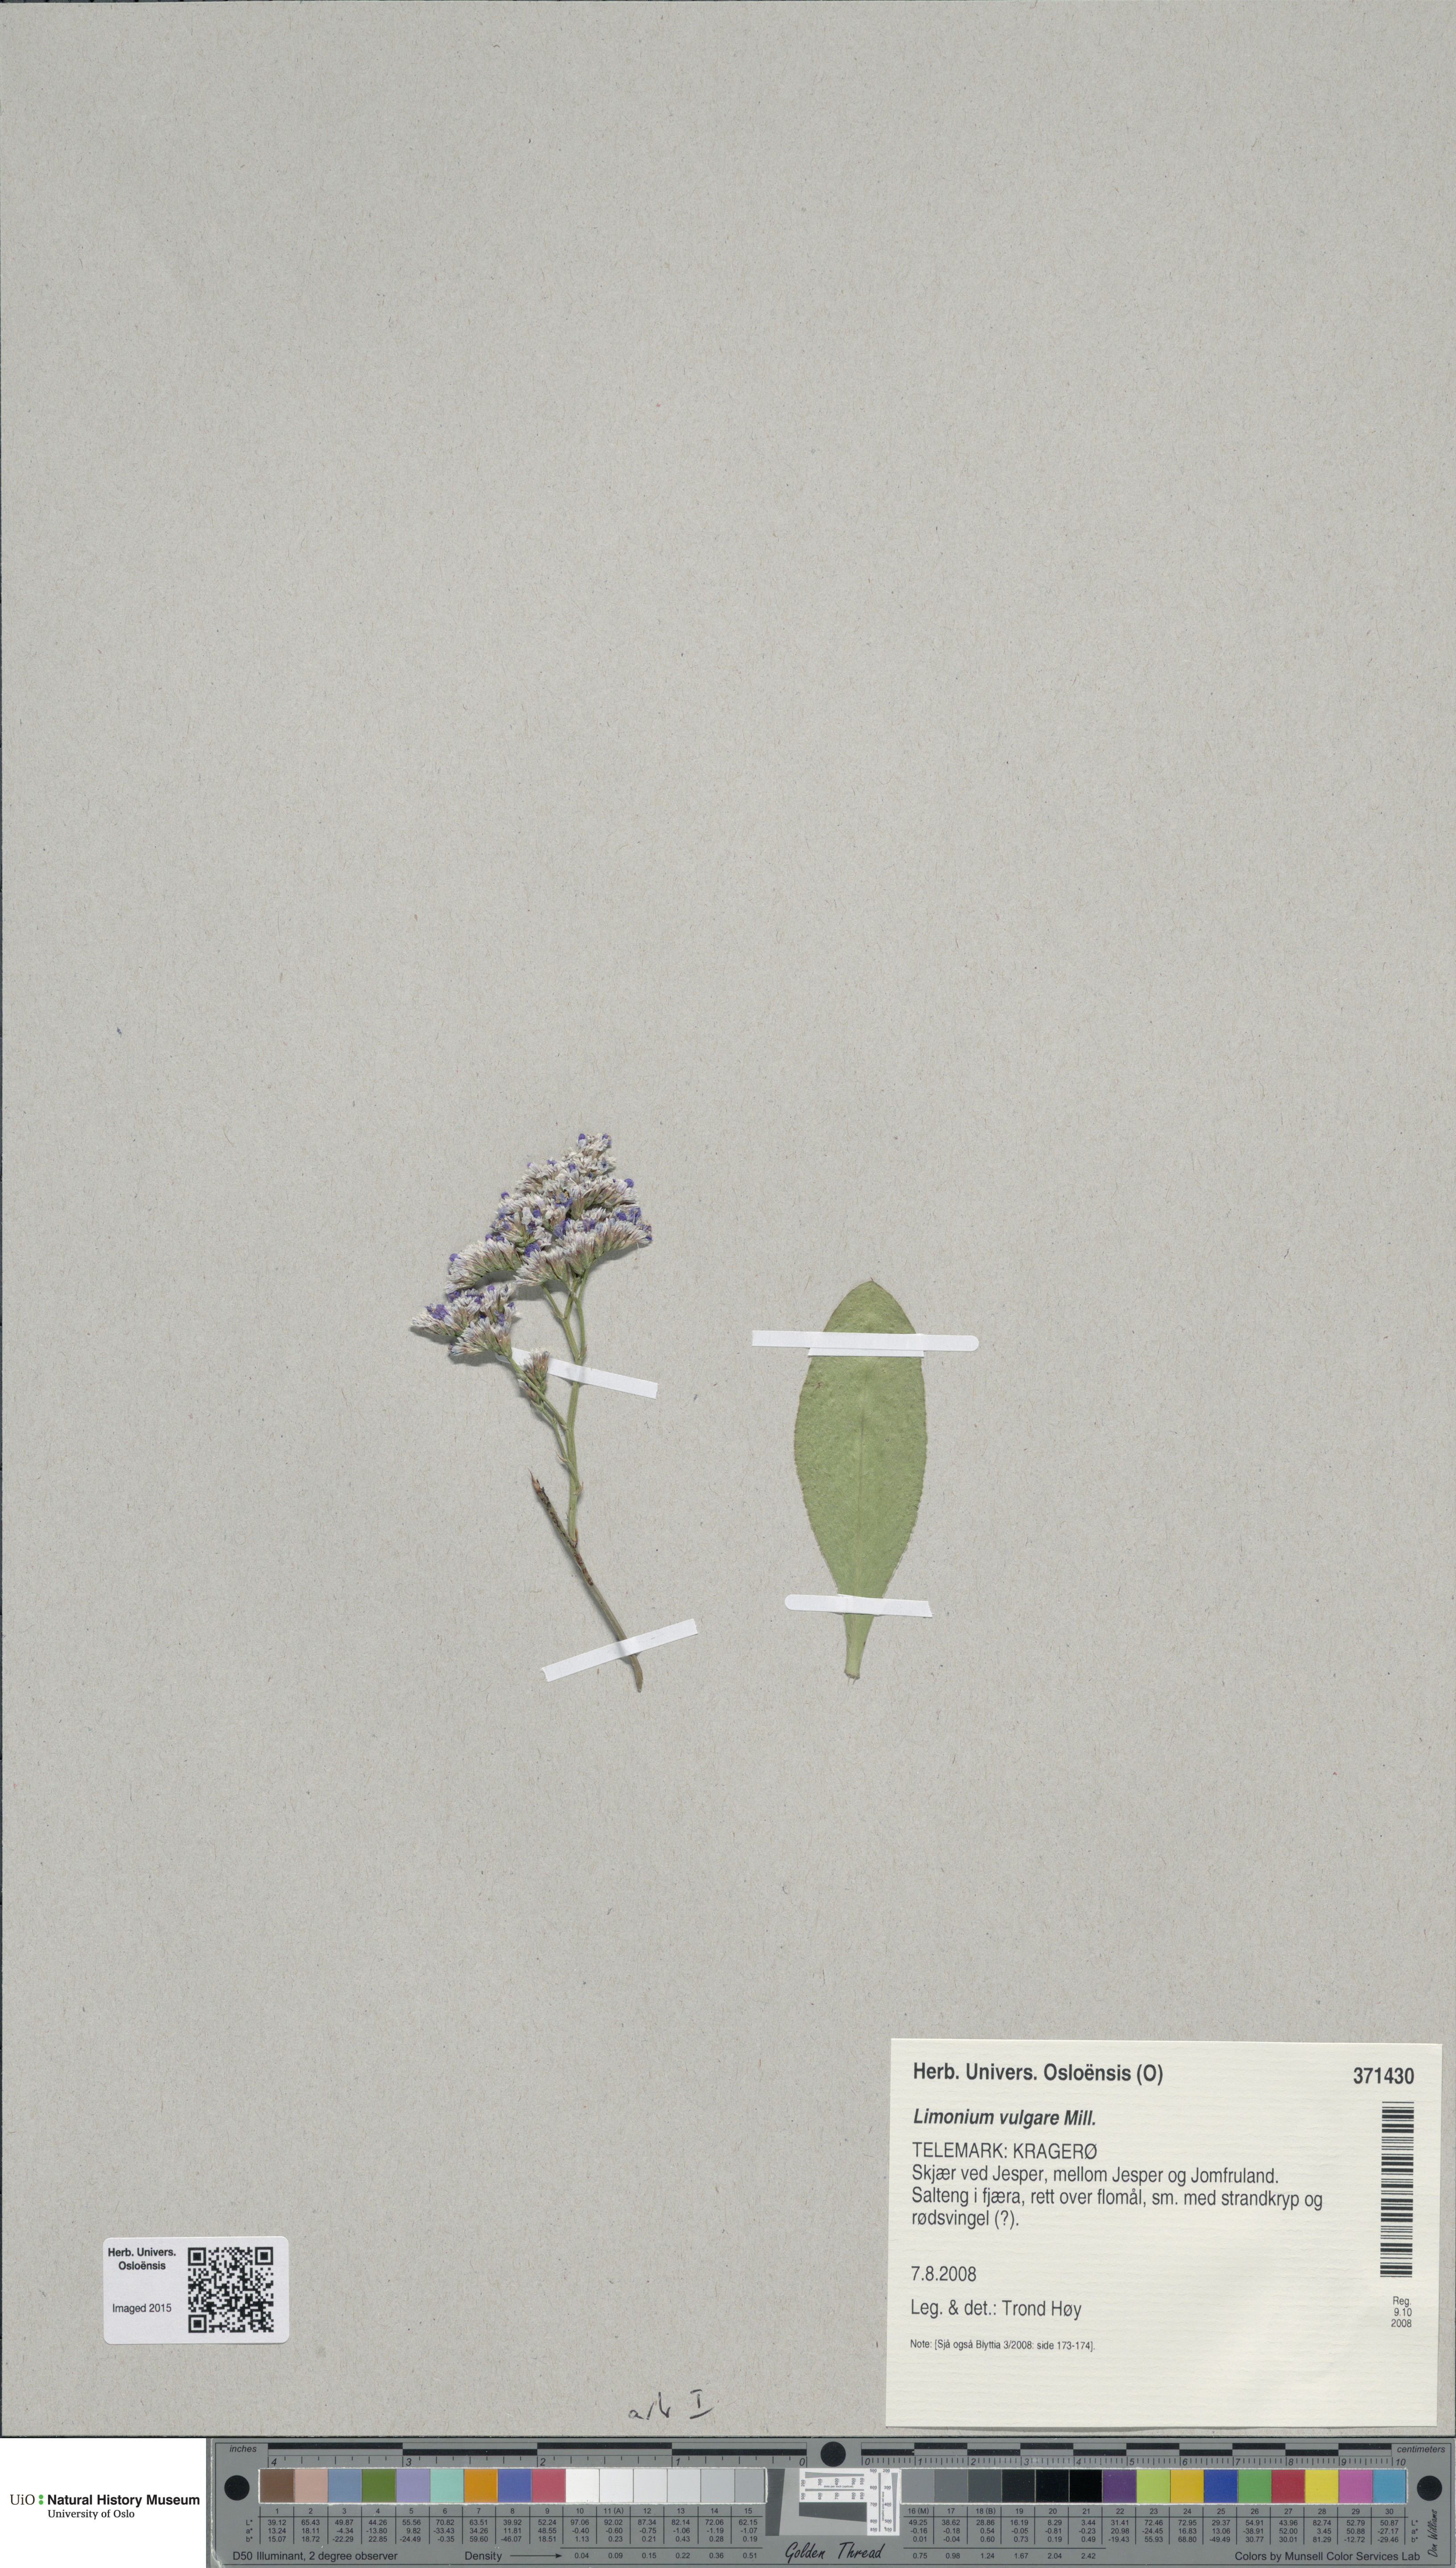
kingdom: Plantae
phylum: Tracheophyta
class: Magnoliopsida
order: Caryophyllales
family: Plumbaginaceae
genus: Limonium
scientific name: Limonium vulgare
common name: Common sea-lavender
